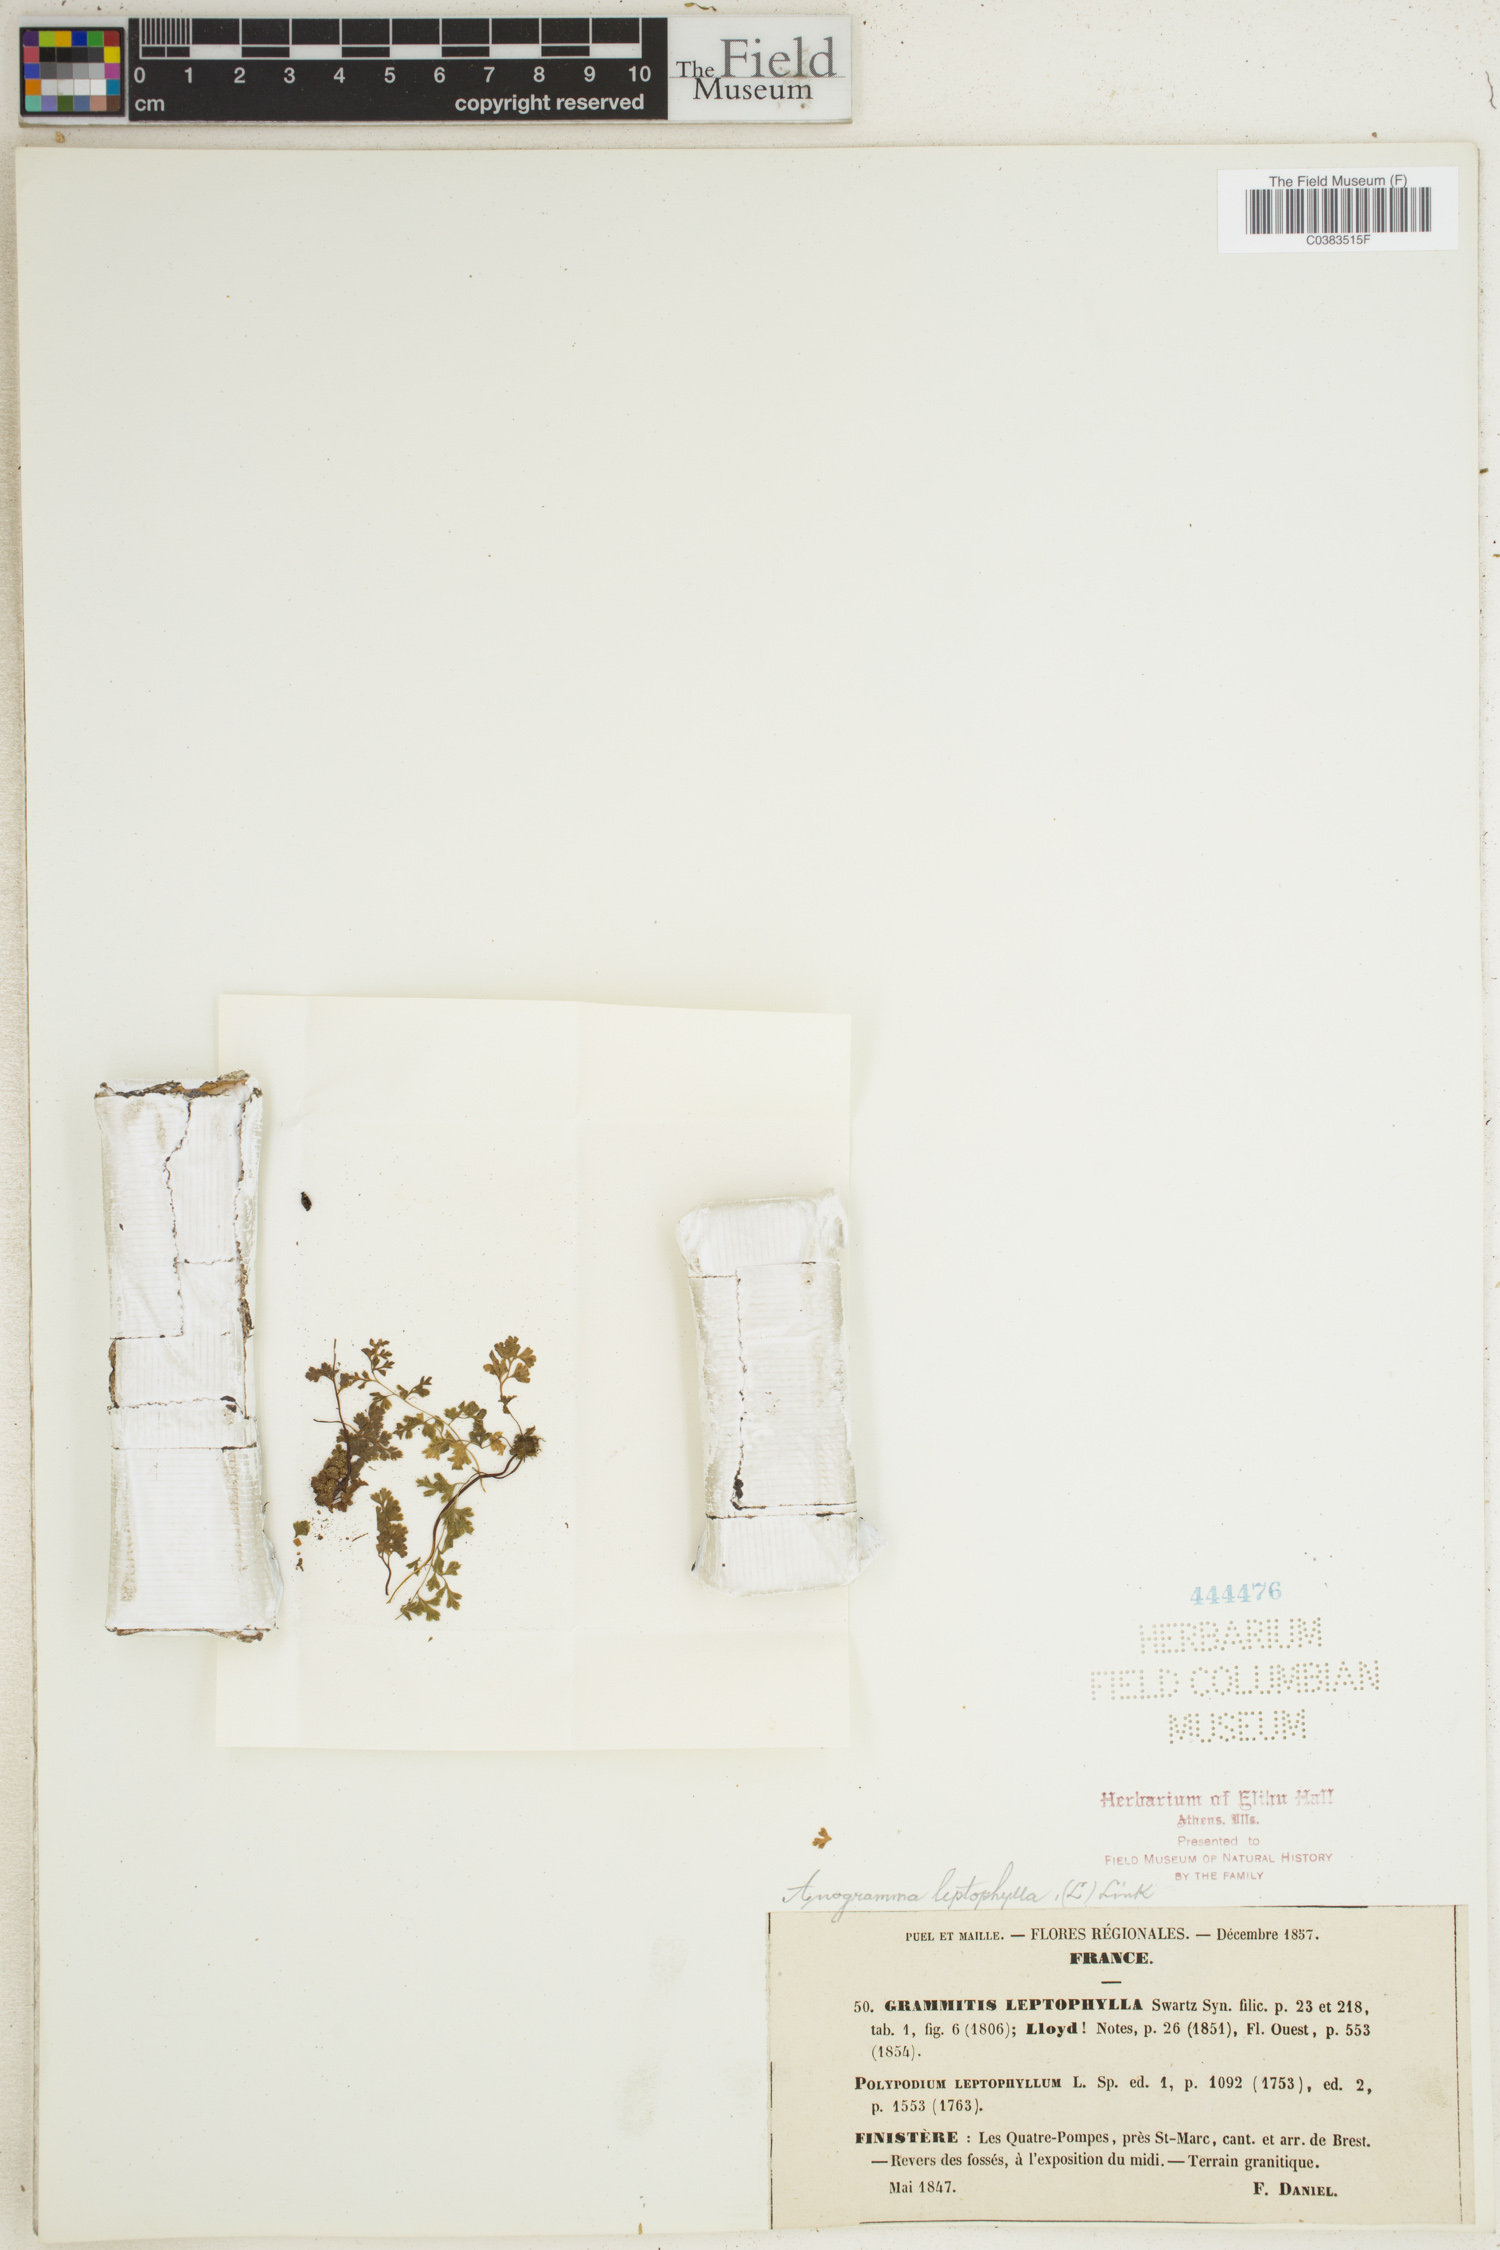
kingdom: Plantae
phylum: Tracheophyta
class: Polypodiopsida
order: Polypodiales
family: Pteridaceae
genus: Anogramma
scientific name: Anogramma leptophylla
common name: Jersey fern
